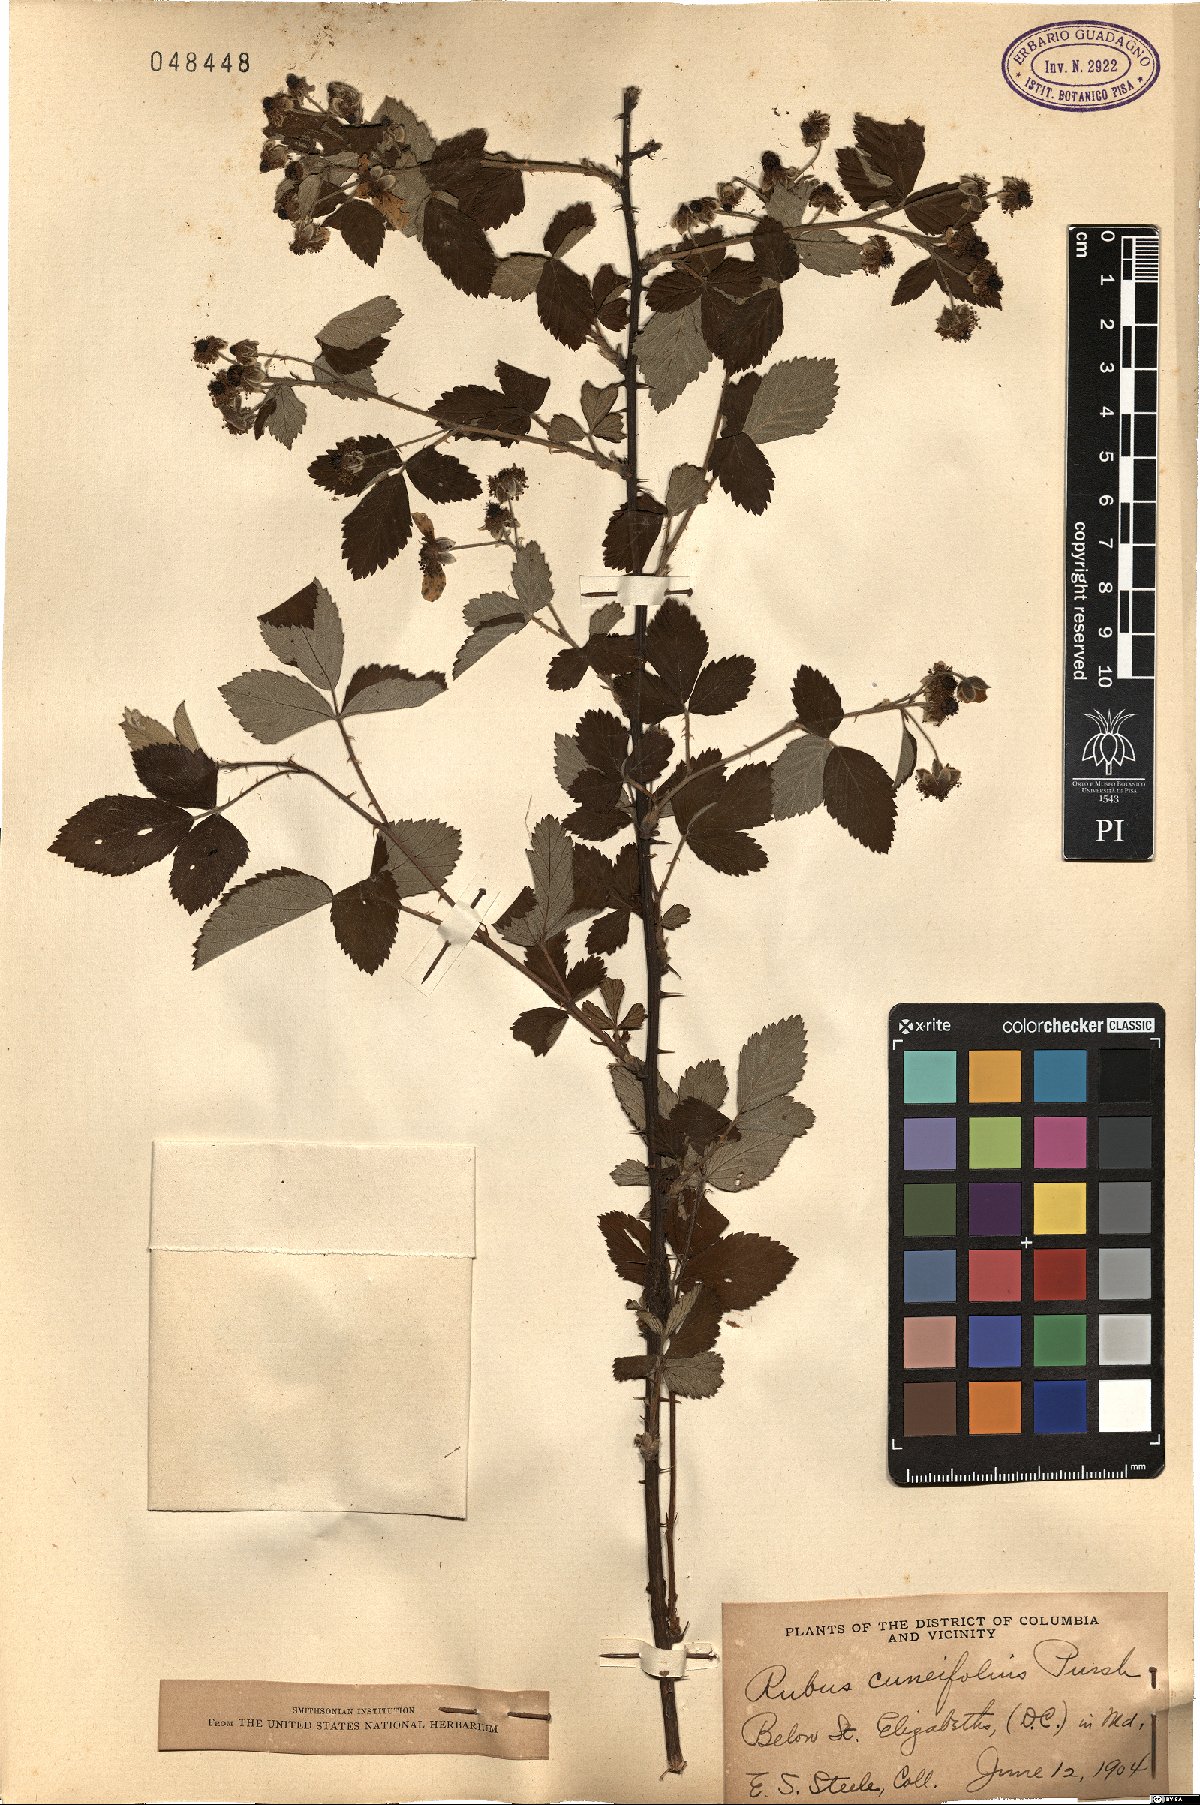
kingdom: Plantae
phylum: Tracheophyta
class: Magnoliopsida
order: Rosales
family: Rosaceae
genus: Rubus
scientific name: Rubus cuneifolius
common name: American bramble
